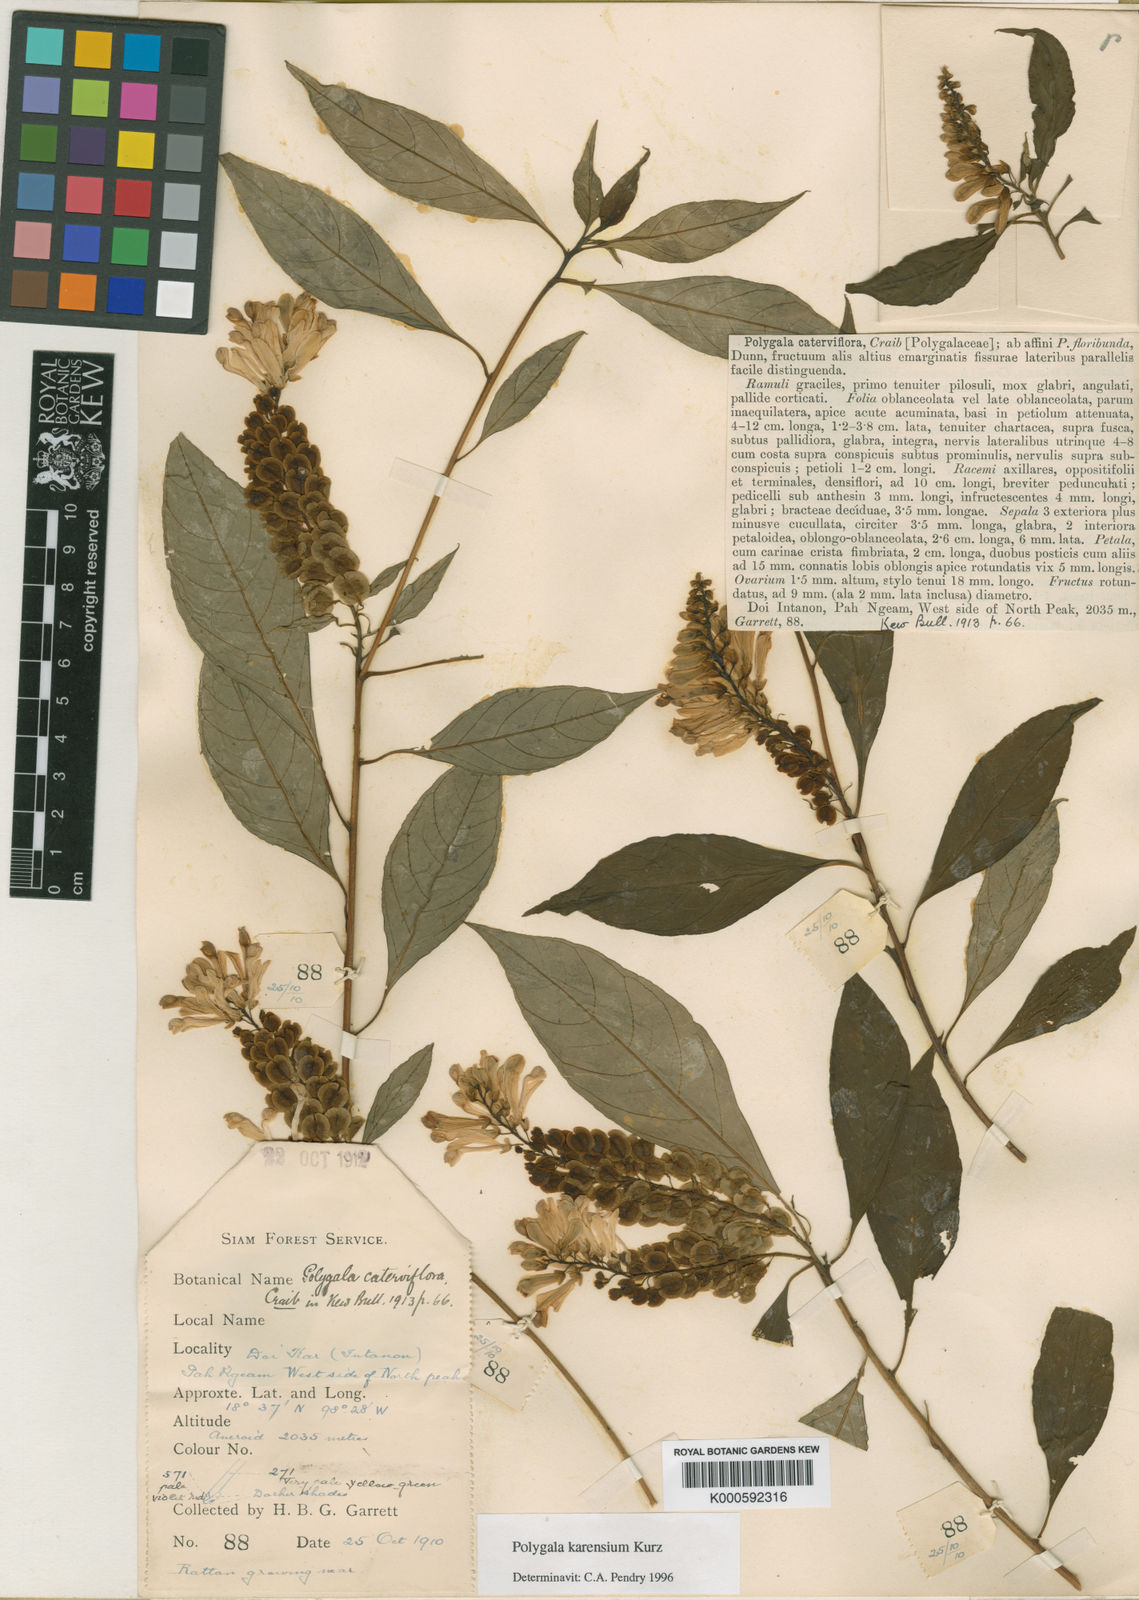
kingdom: Plantae
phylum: Tracheophyta
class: Magnoliopsida
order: Fabales
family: Polygalaceae
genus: Polygala
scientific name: Polygala karensium
